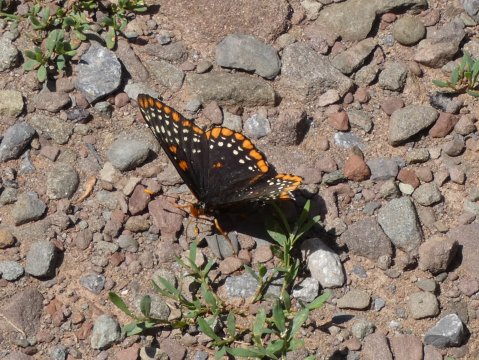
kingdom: Animalia
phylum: Arthropoda
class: Insecta
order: Lepidoptera
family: Nymphalidae
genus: Euphydryas
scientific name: Euphydryas phaeton
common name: Baltimore Checkerspot
